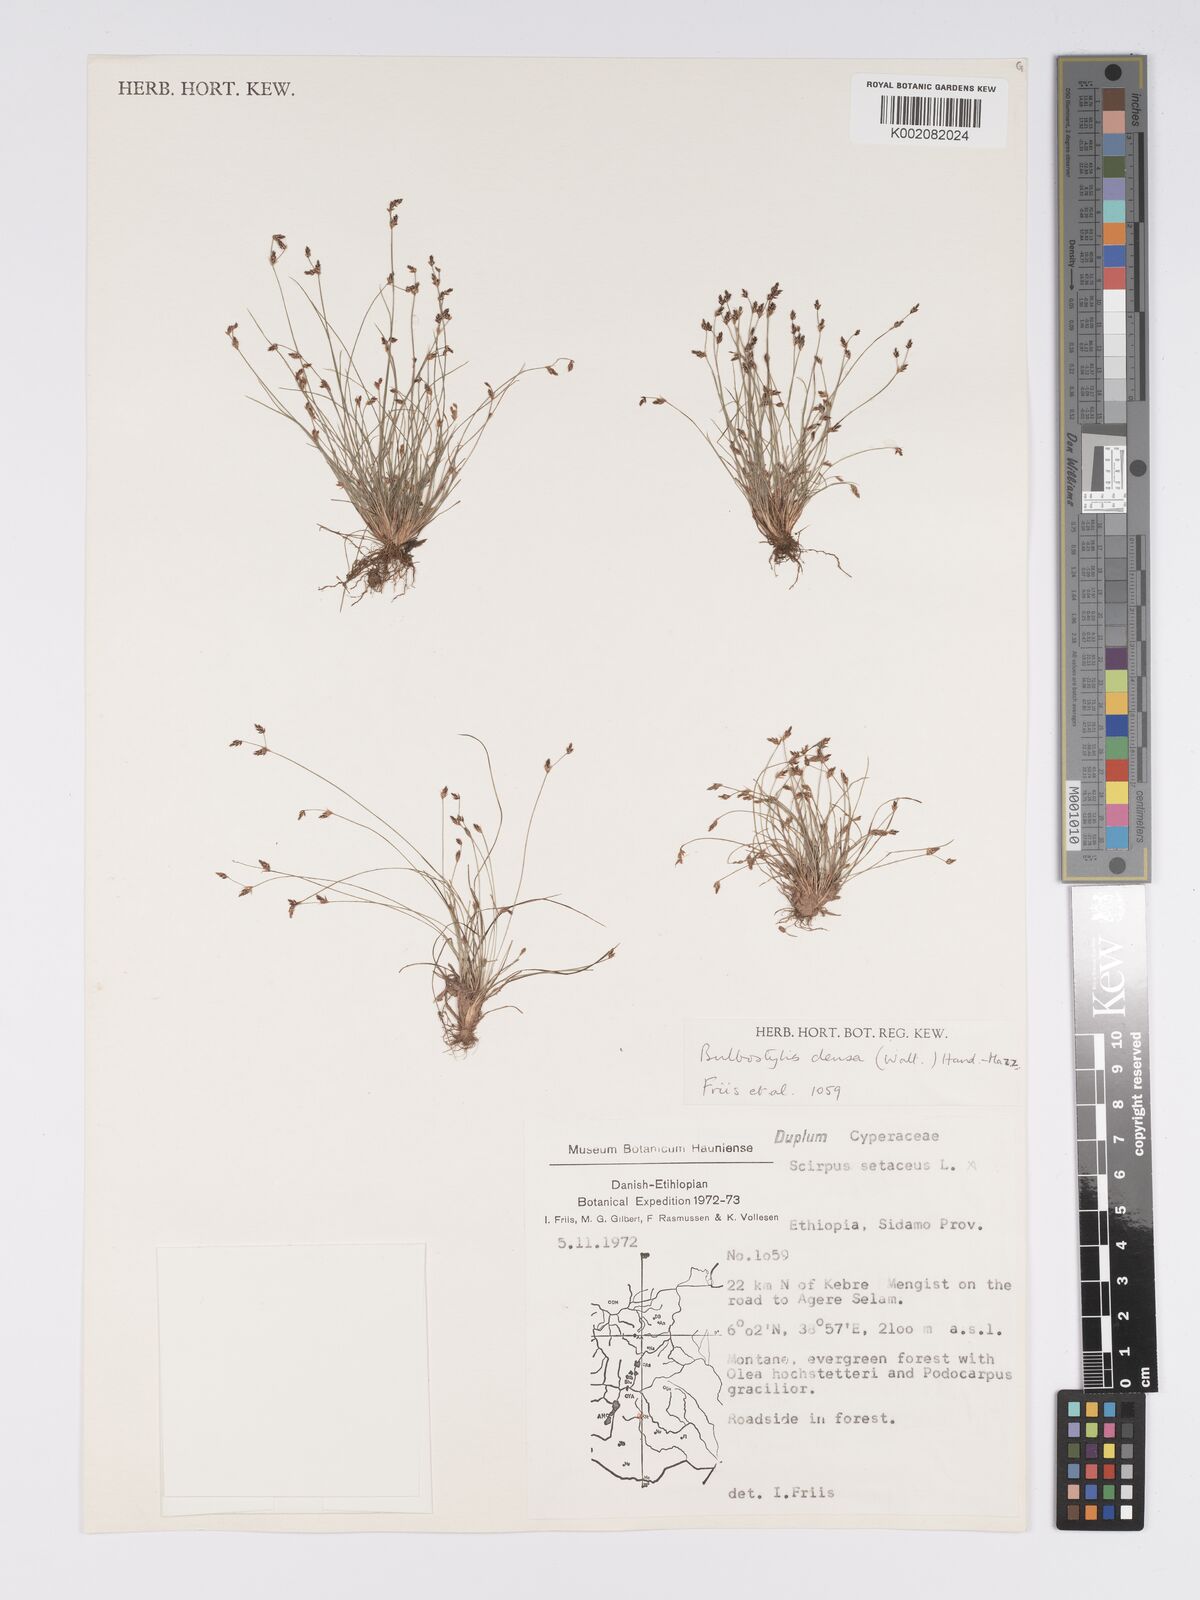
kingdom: Plantae
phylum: Tracheophyta
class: Liliopsida
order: Poales
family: Cyperaceae
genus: Bulbostylis
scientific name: Bulbostylis densa
